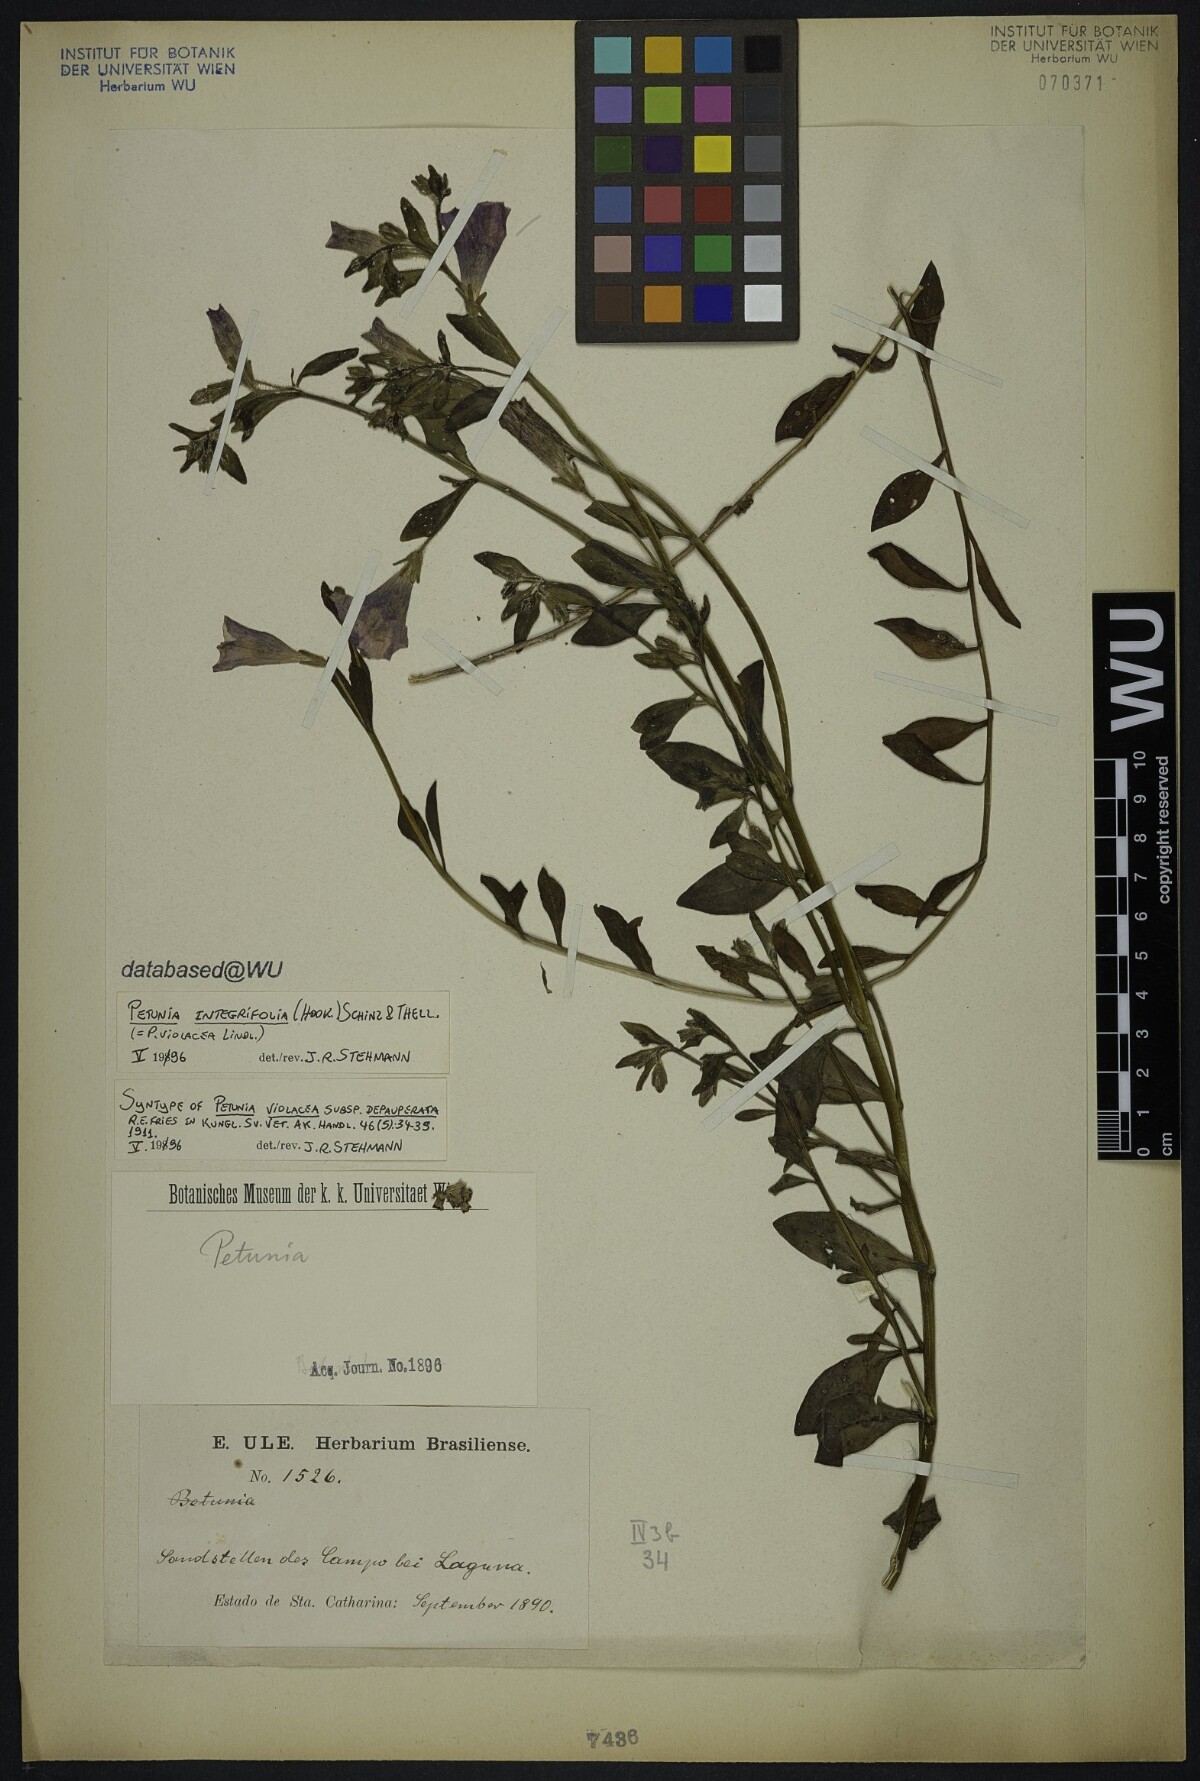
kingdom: Plantae
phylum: Tracheophyta
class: Magnoliopsida
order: Solanales
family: Solanaceae
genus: Petunia
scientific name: Petunia integrifolia
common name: Violet-flower petunia
